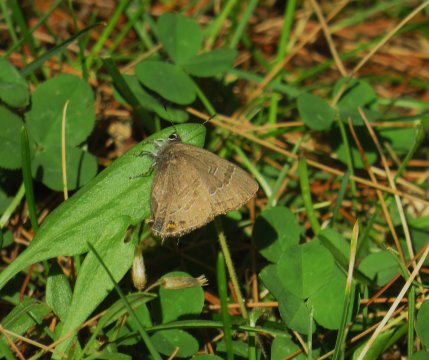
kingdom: Animalia
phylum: Arthropoda
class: Insecta
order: Lepidoptera
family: Lycaenidae
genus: Satyrium
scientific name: Satyrium calanus
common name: Banded Hairstreak
